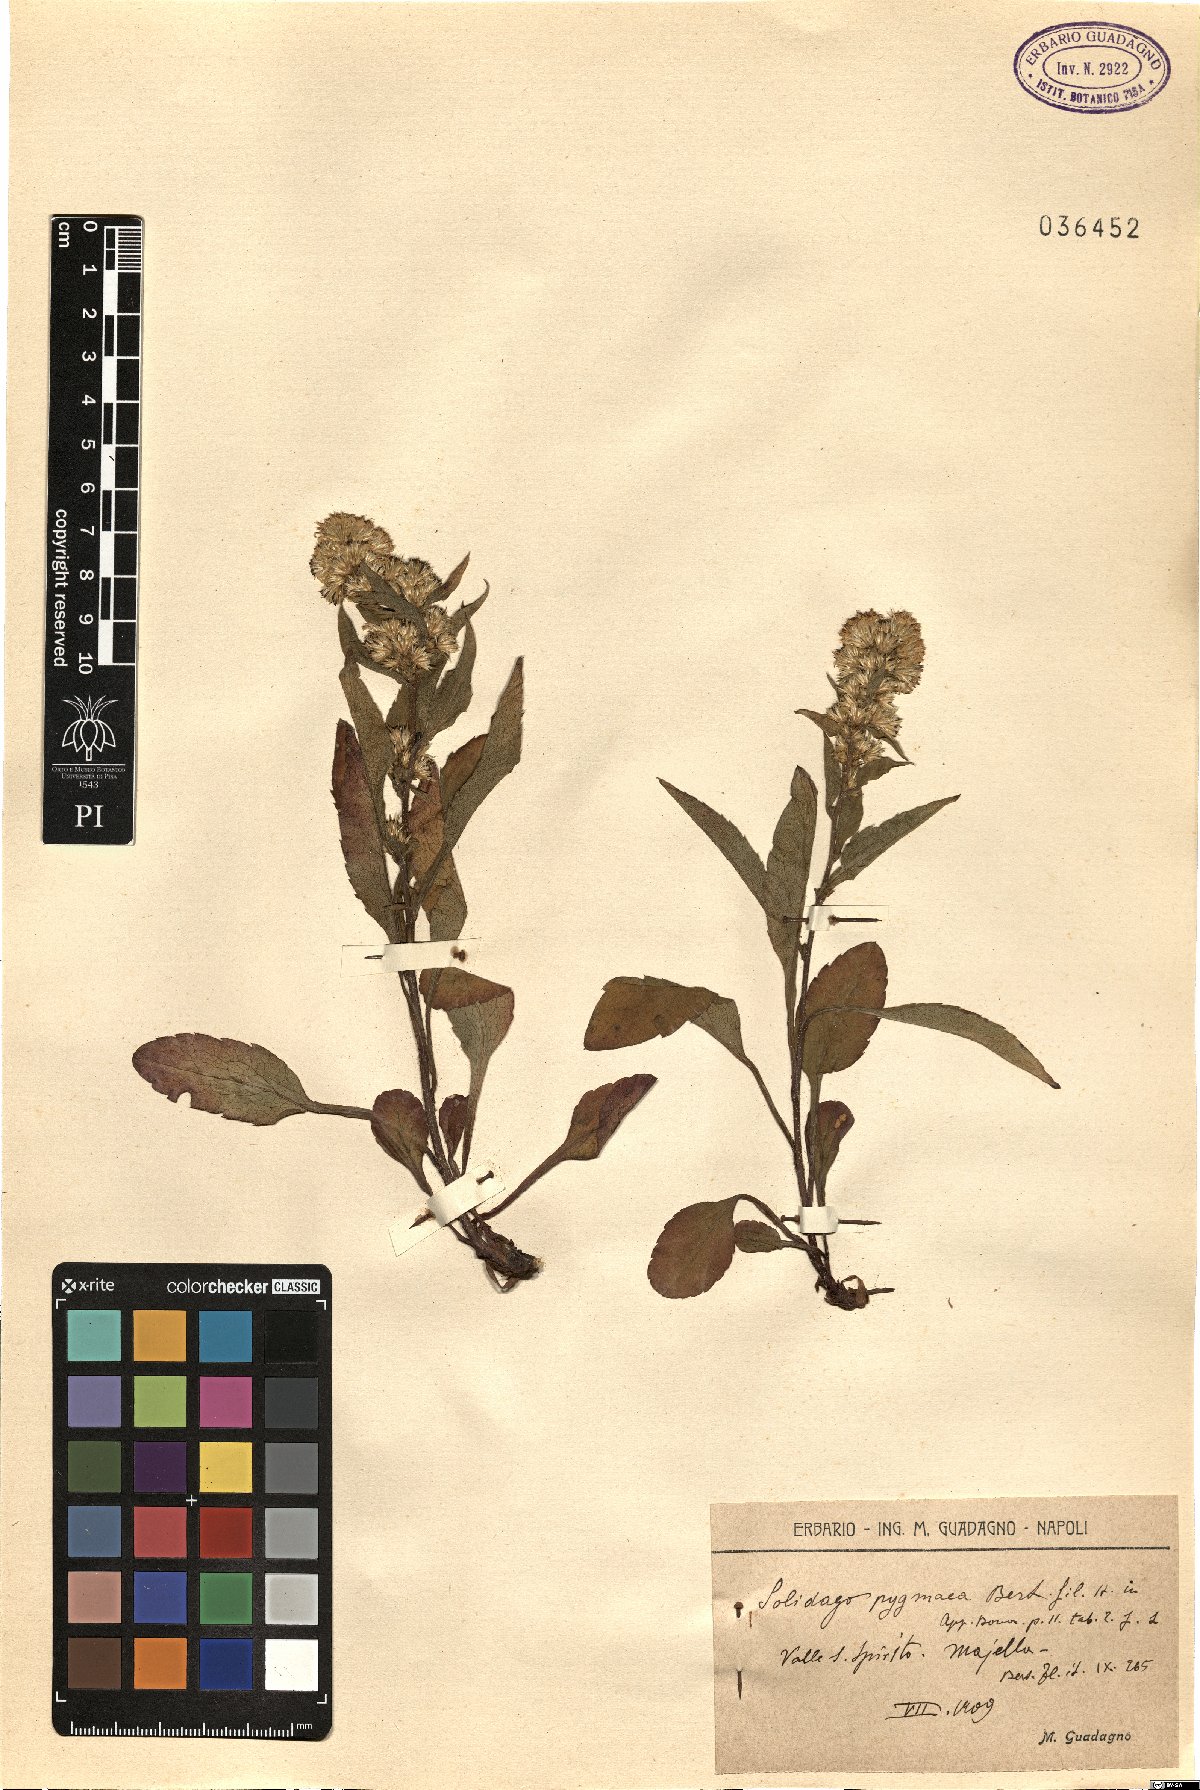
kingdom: Plantae
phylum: Tracheophyta
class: Magnoliopsida
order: Asterales
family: Asteraceae
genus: Solidago
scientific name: Solidago virgaurea
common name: Goldenrod
